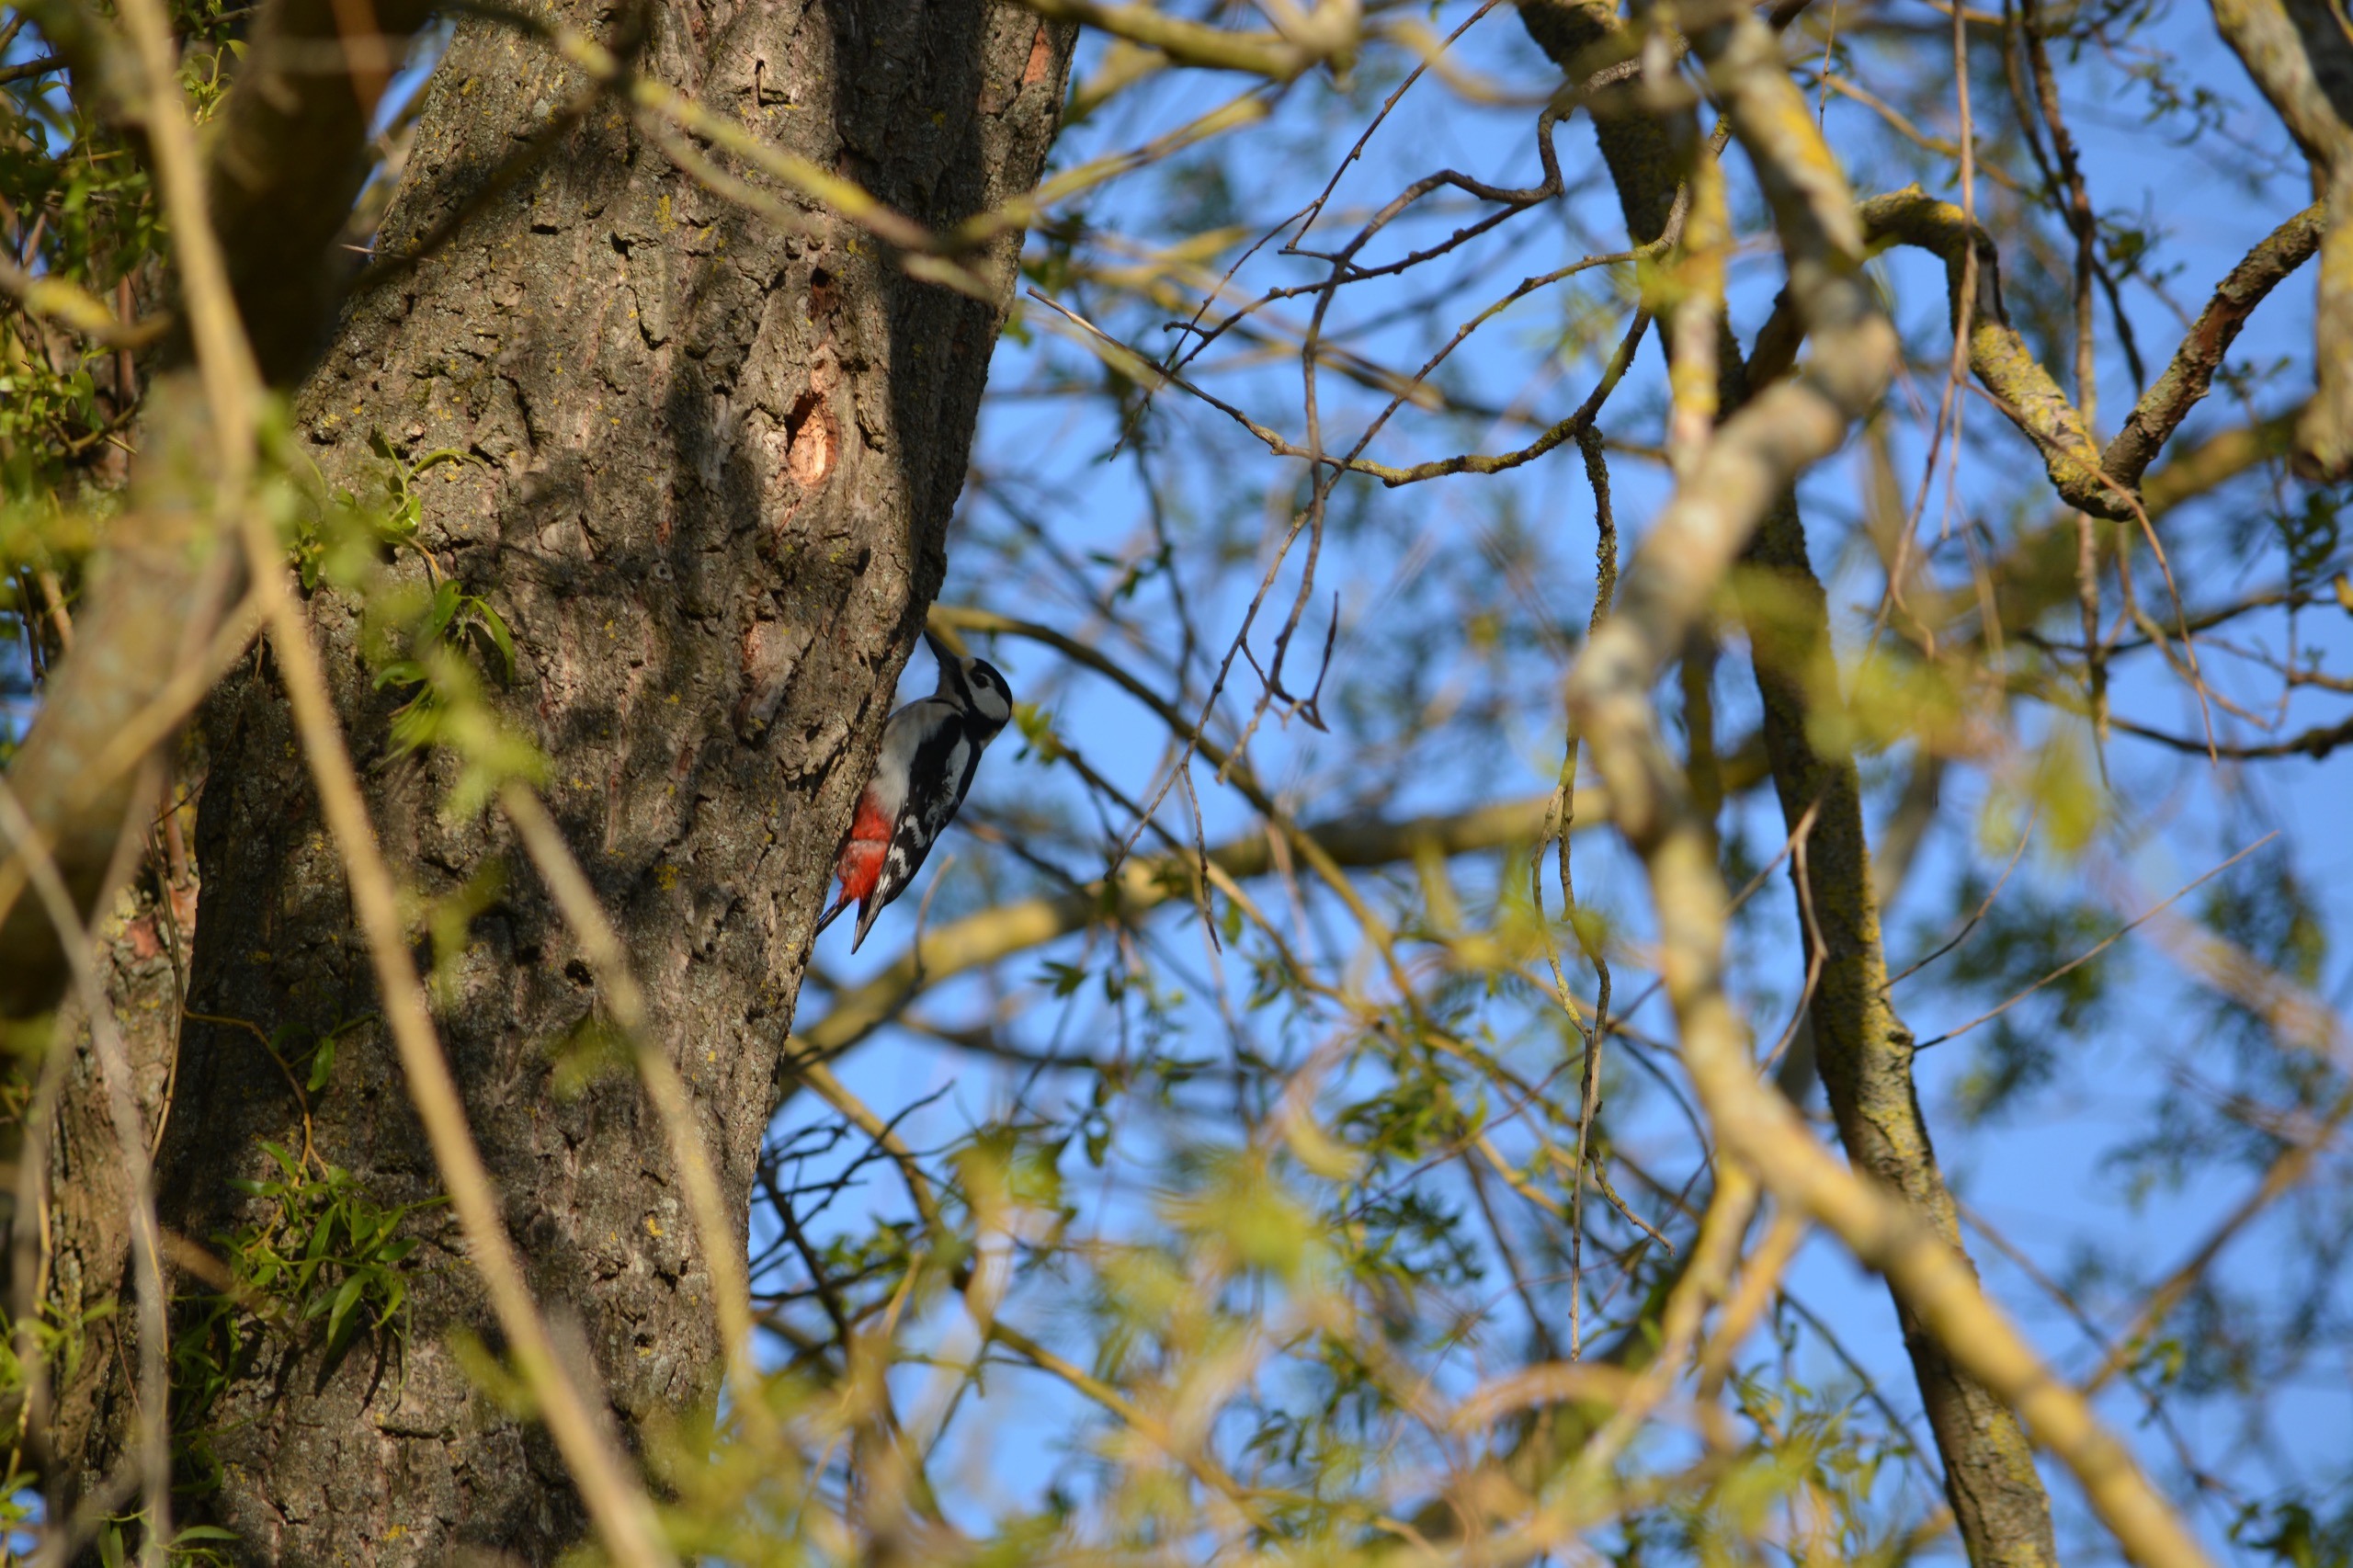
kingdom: Animalia
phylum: Chordata
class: Aves
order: Piciformes
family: Picidae
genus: Dendrocopos
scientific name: Dendrocopos major
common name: Stor flagspætte
